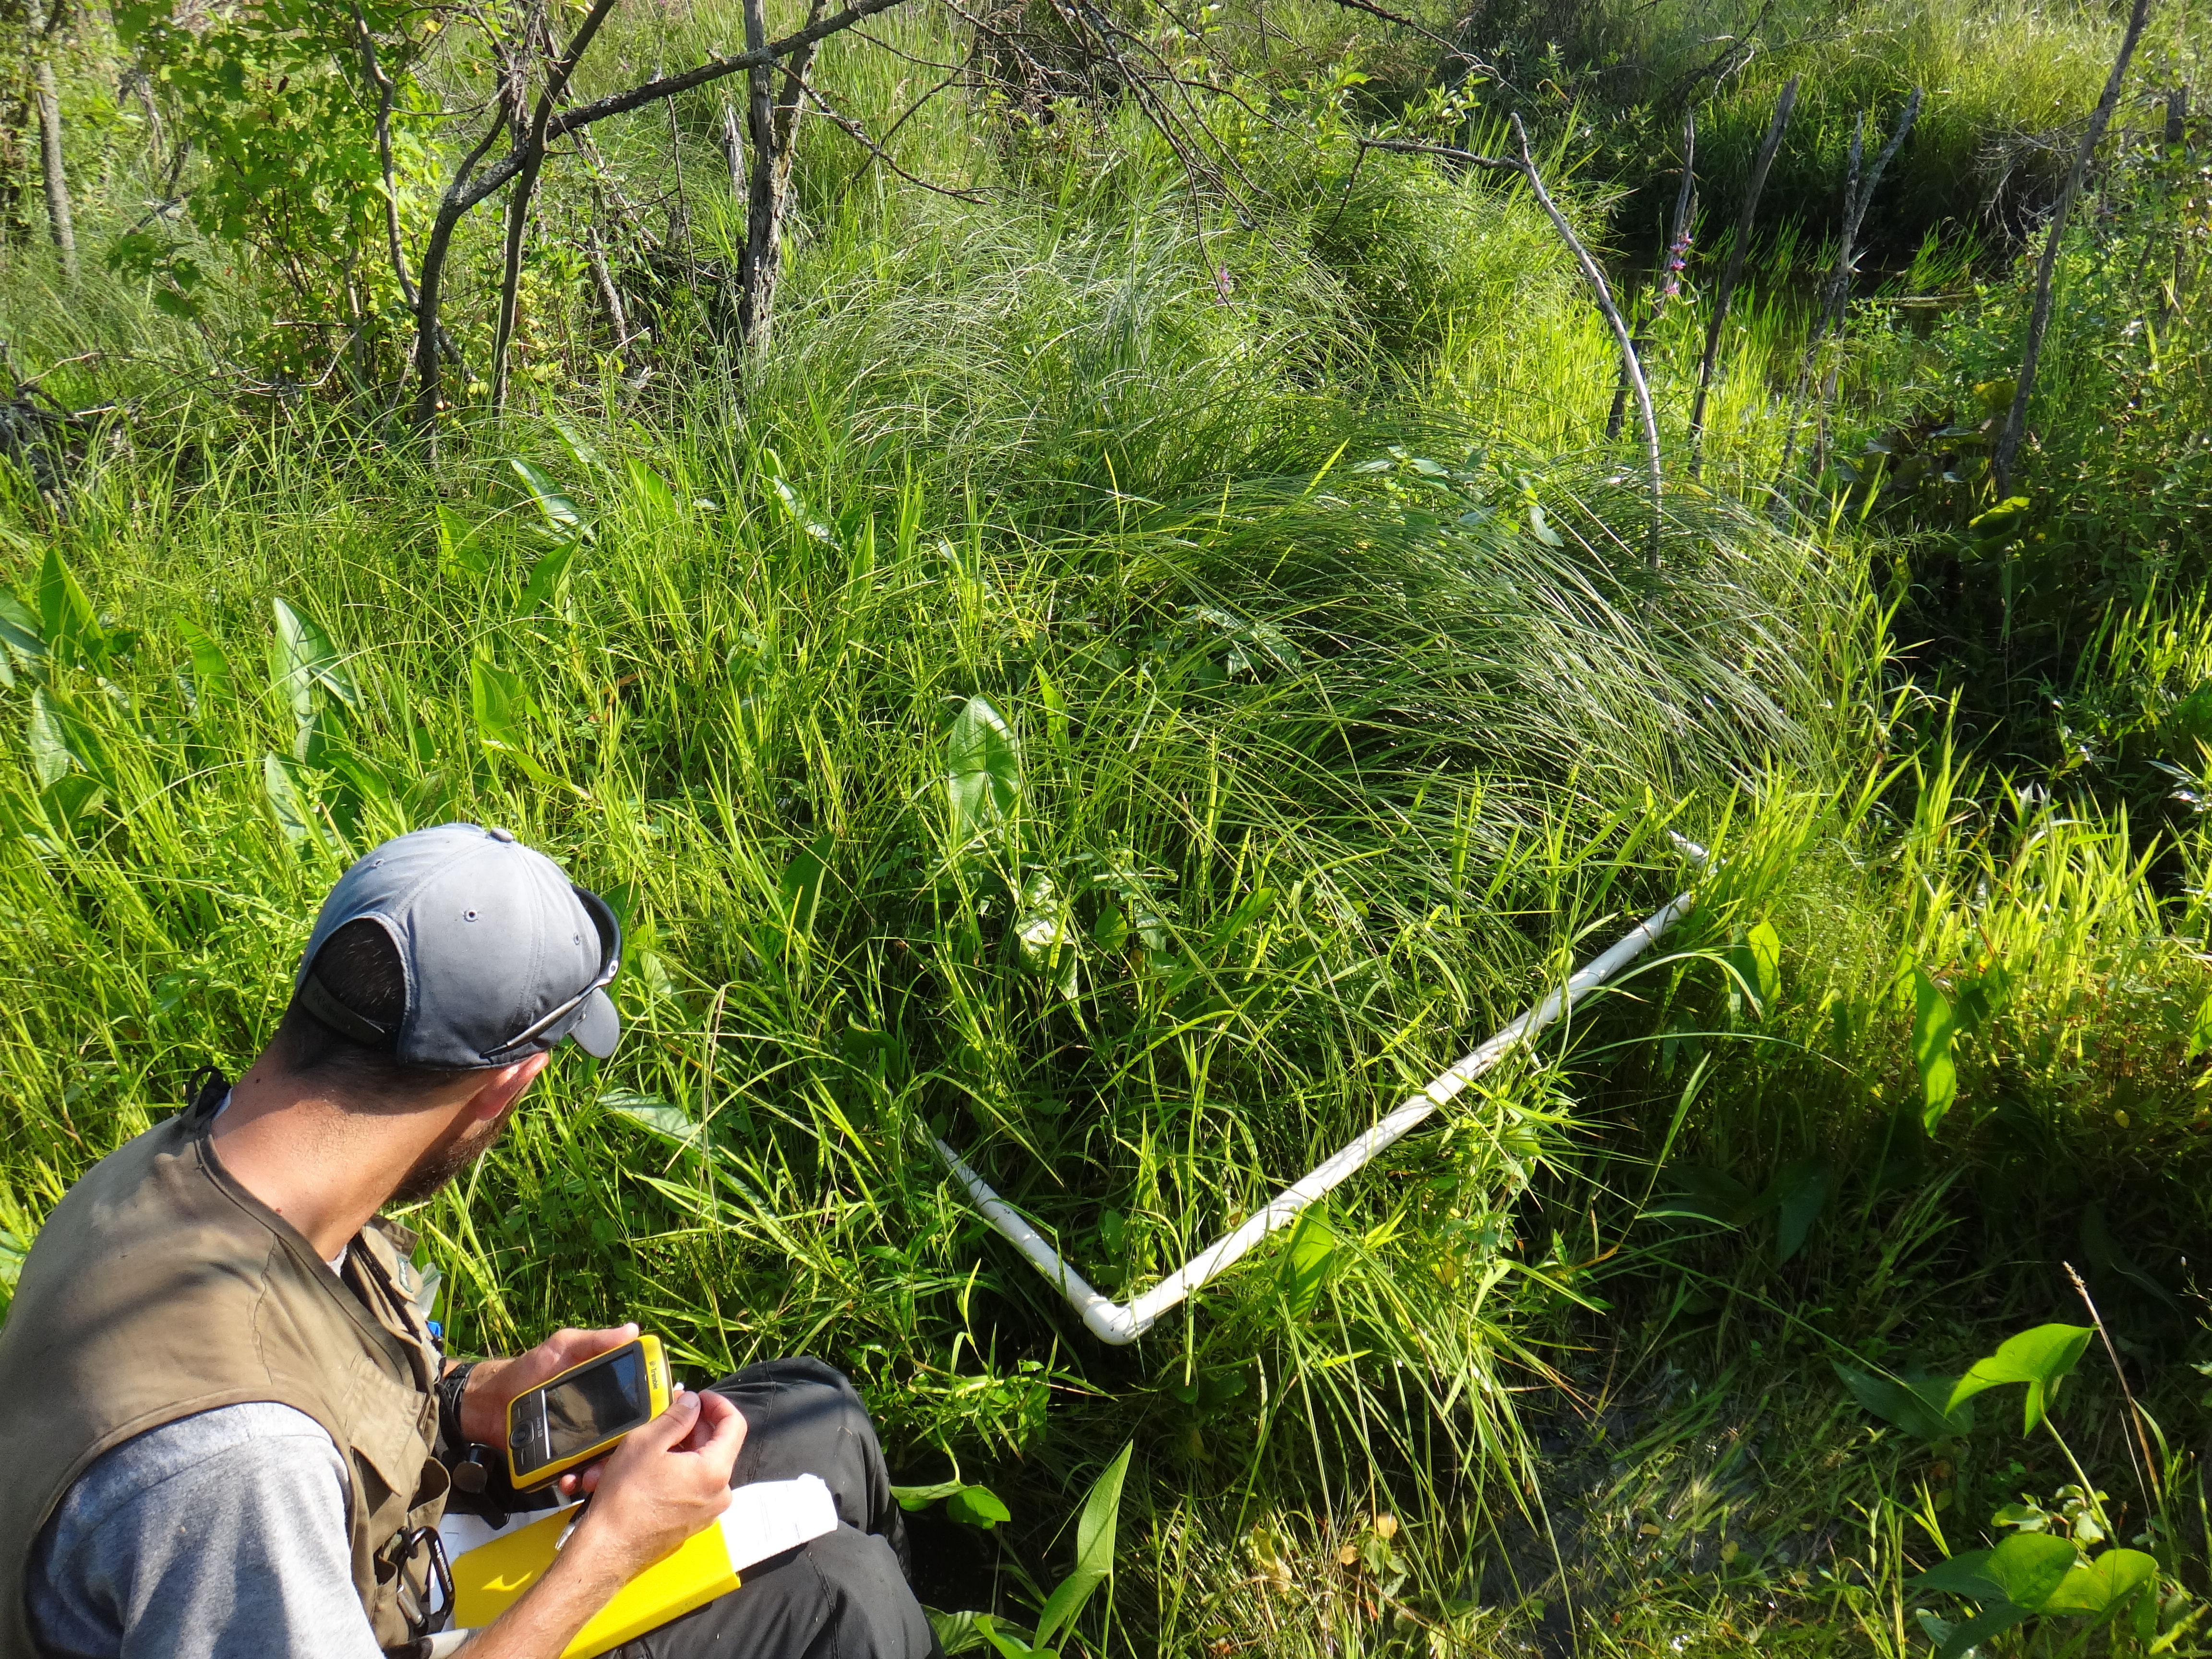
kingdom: Plantae
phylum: Tracheophyta
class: Liliopsida
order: Poales
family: Poaceae
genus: Leersia
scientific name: Leersia oryzoides
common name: Cut-grass
